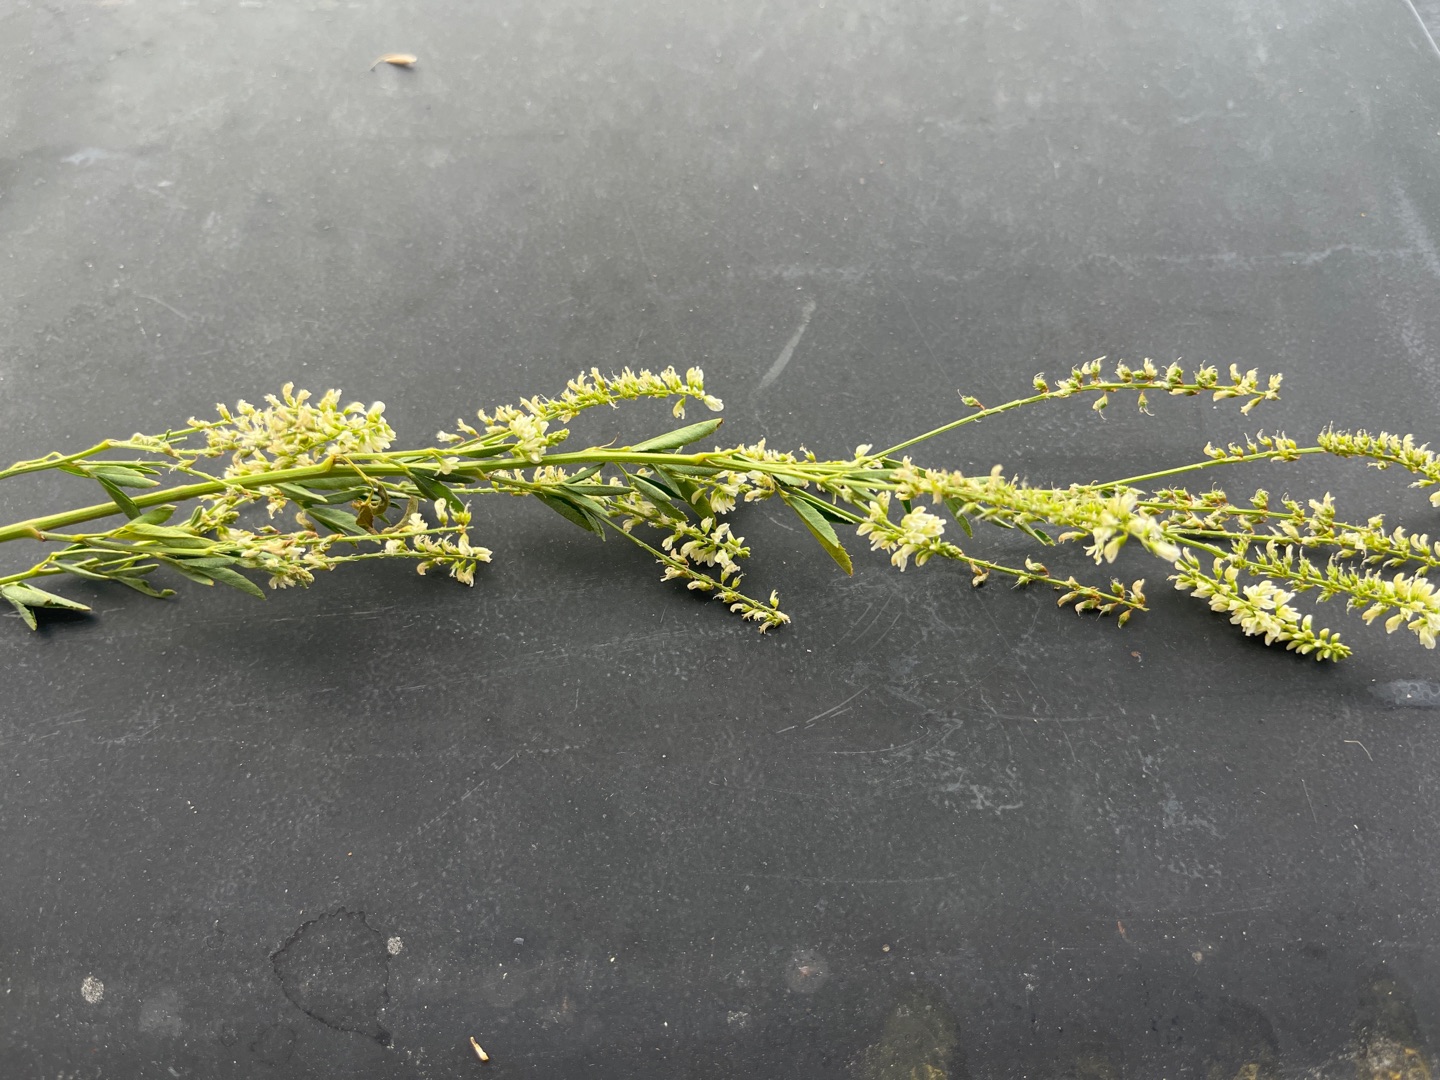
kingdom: Plantae
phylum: Tracheophyta
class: Magnoliopsida
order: Fabales
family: Fabaceae
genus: Melilotus
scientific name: Melilotus albus
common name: Hvid stenkløver
